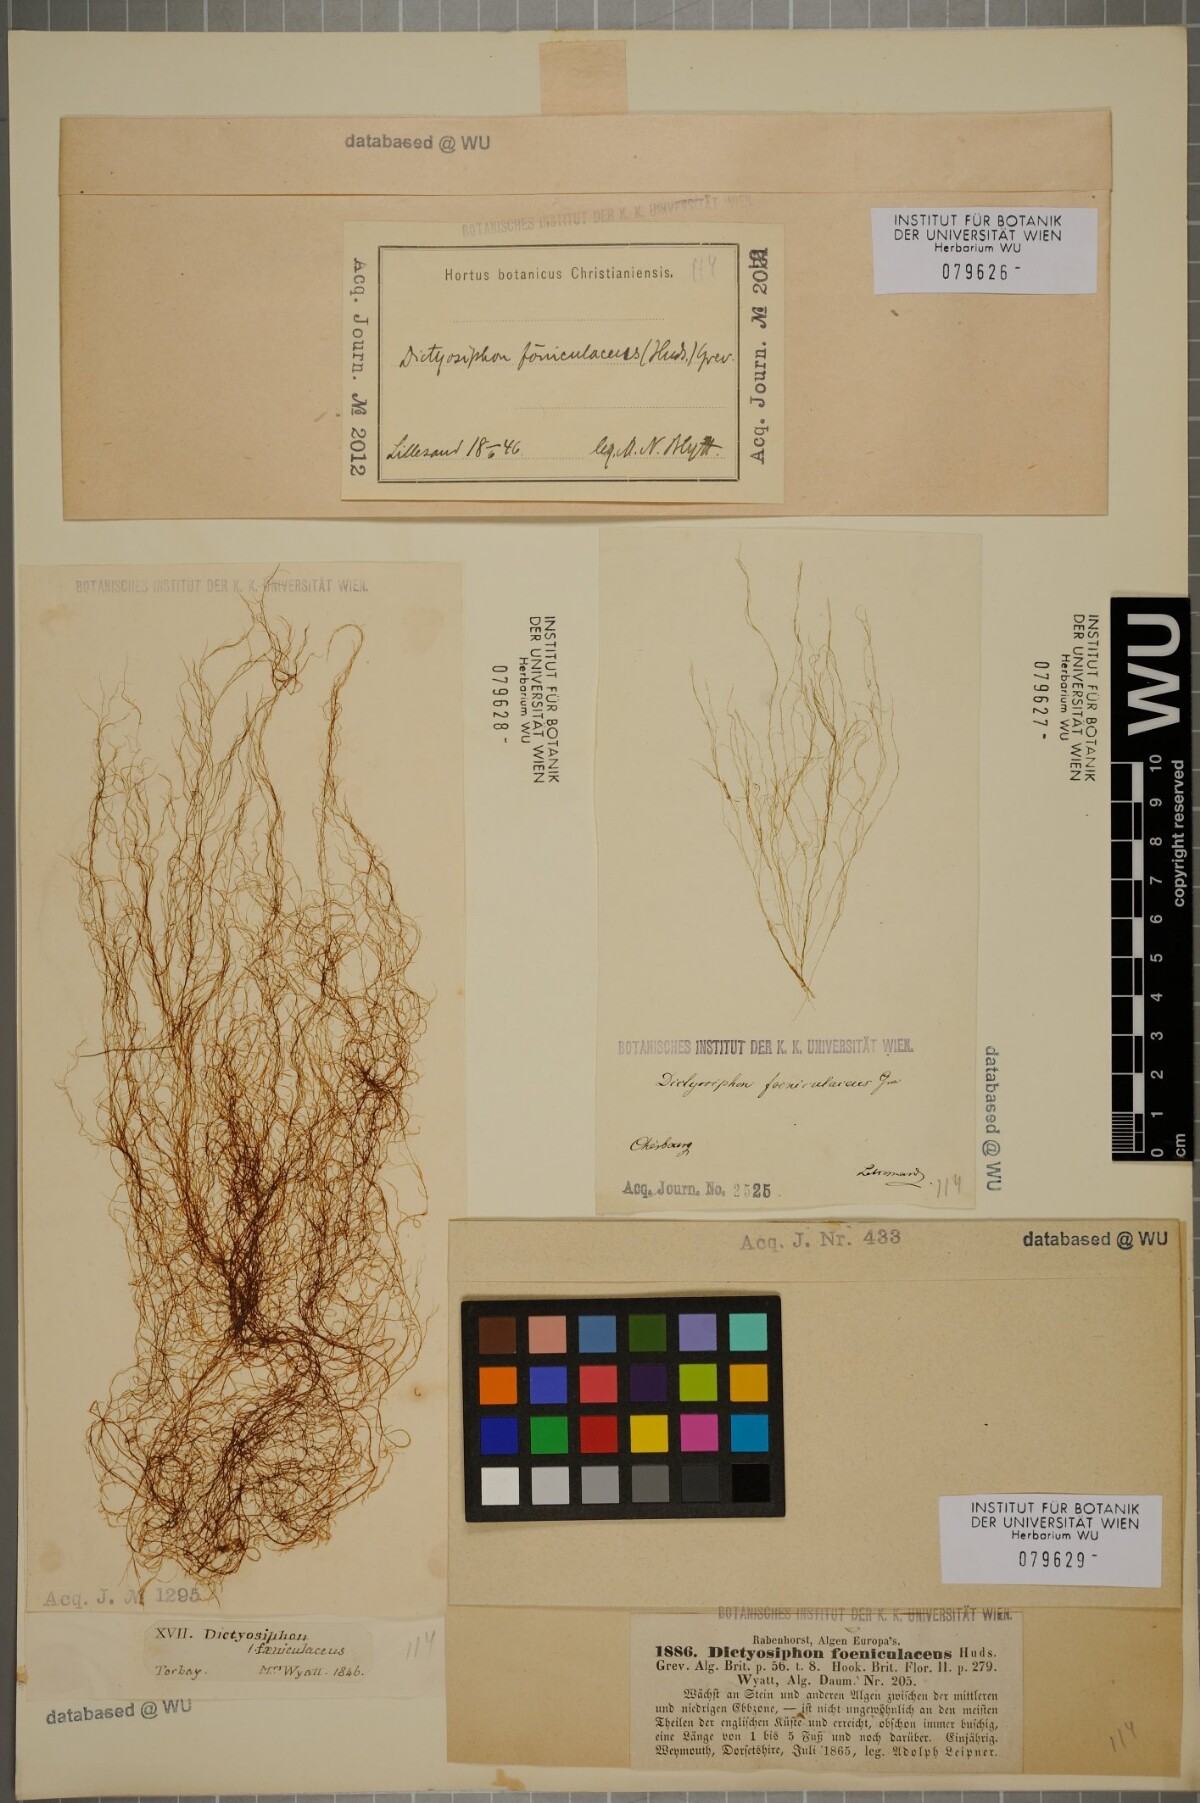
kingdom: Chromista
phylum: Ochrophyta
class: Phaeophyceae
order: Ectocarpales
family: Chordariaceae
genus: Dictyosiphon
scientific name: Dictyosiphon foeniculaceus
